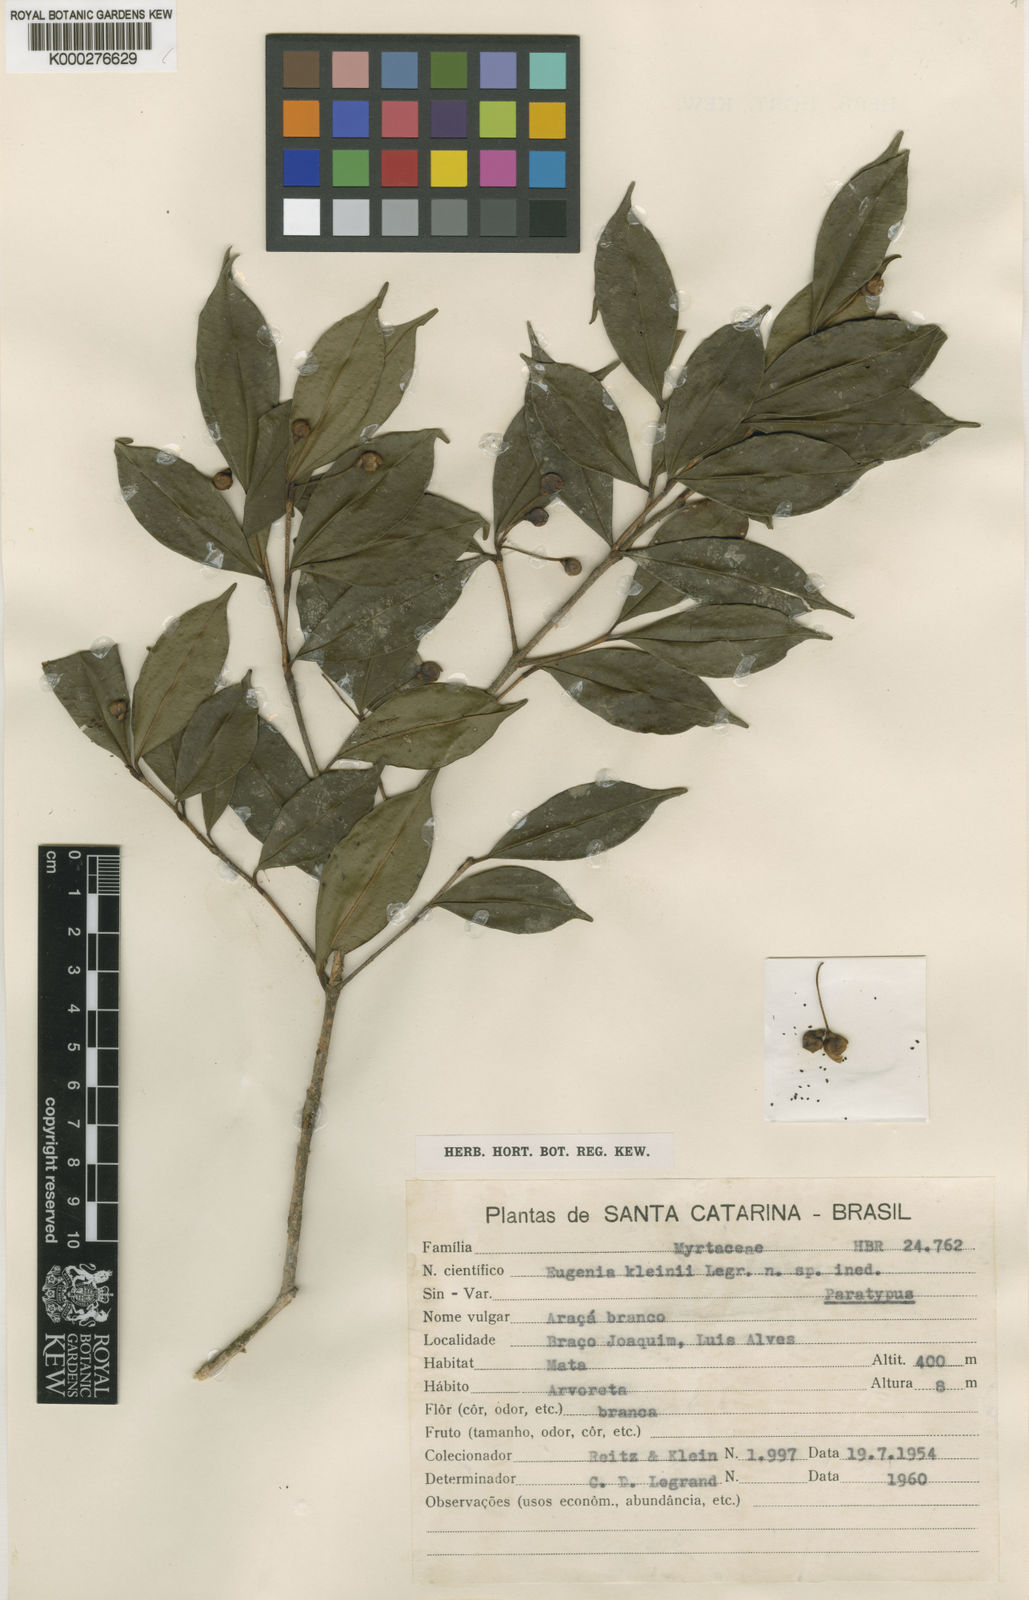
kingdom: Plantae
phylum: Tracheophyta
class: Magnoliopsida
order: Myrtales
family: Myrtaceae
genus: Eugenia
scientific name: Eugenia kleinii
